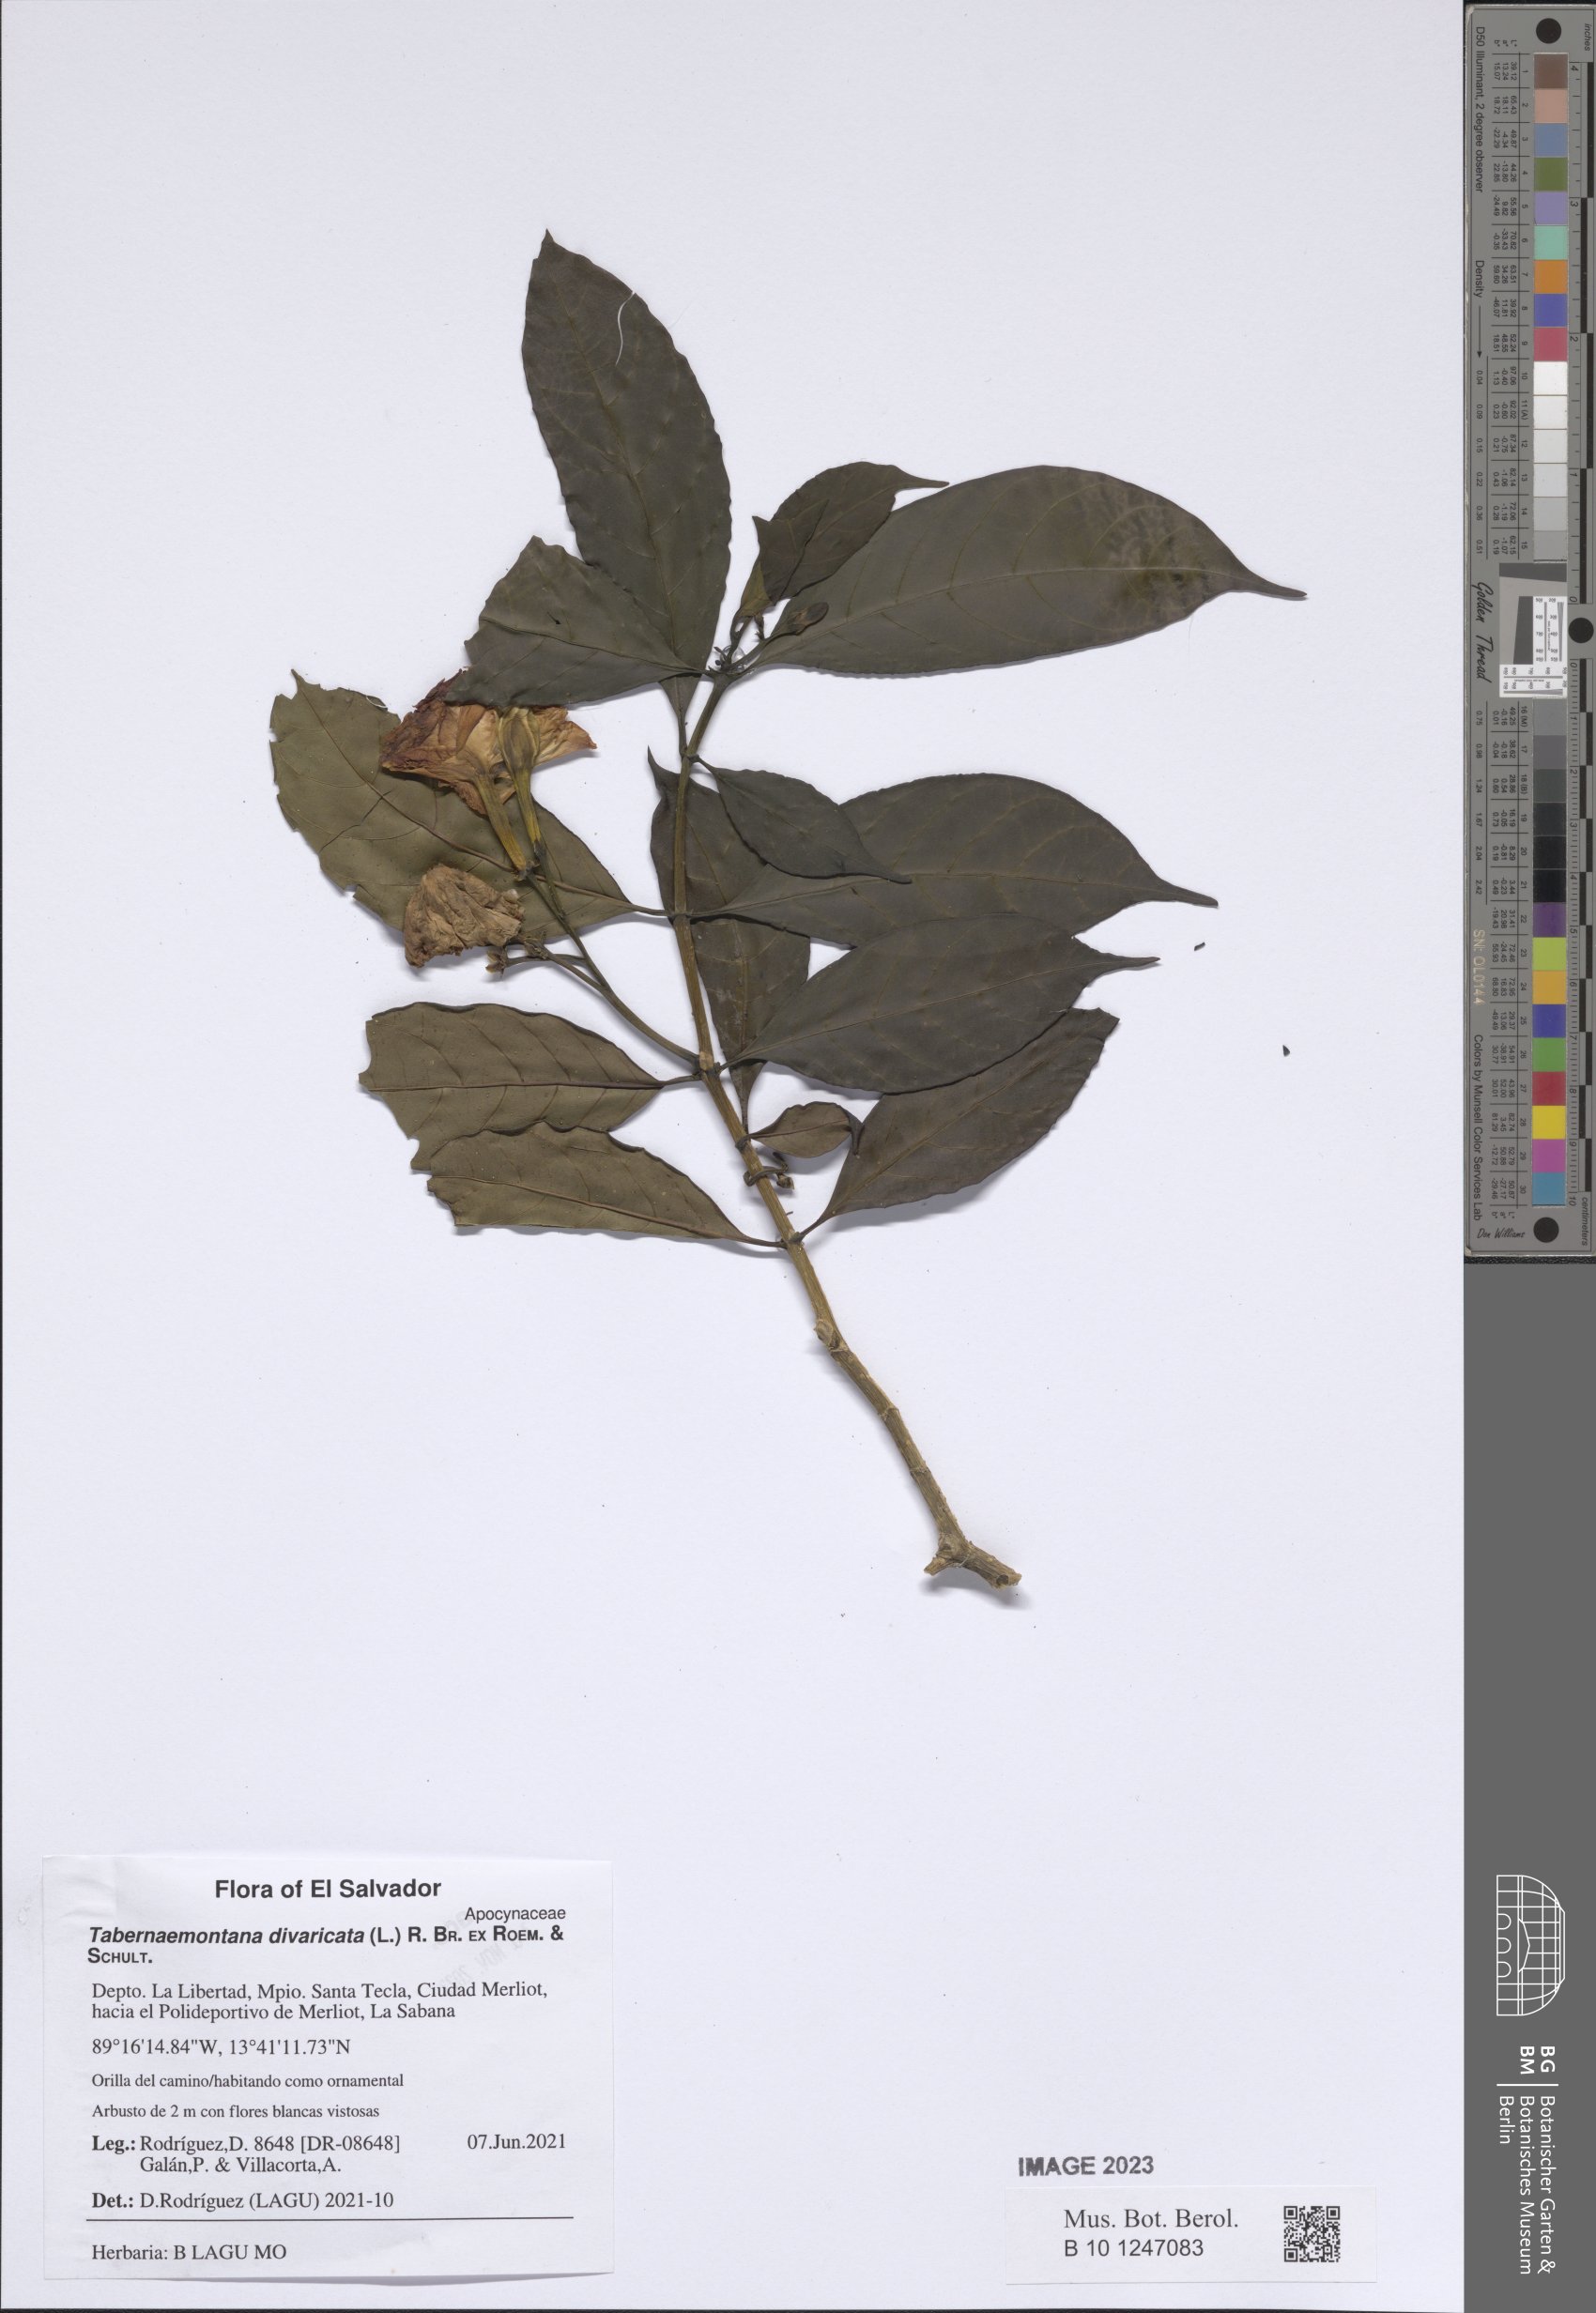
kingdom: Plantae
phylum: Tracheophyta
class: Magnoliopsida
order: Gentianales
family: Apocynaceae
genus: Tabernaemontana
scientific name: Tabernaemontana divaricata
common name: Pinwheelflower
